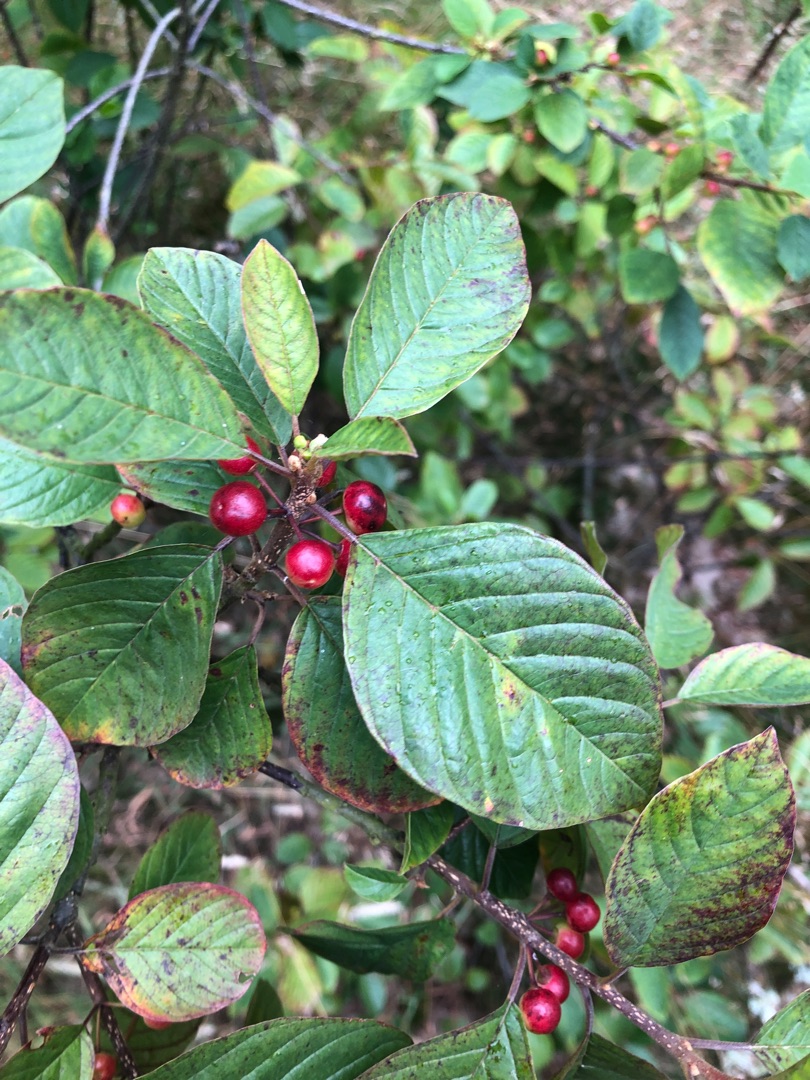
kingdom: Plantae
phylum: Tracheophyta
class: Magnoliopsida
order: Rosales
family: Rhamnaceae
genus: Frangula
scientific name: Frangula alnus
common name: Tørst
